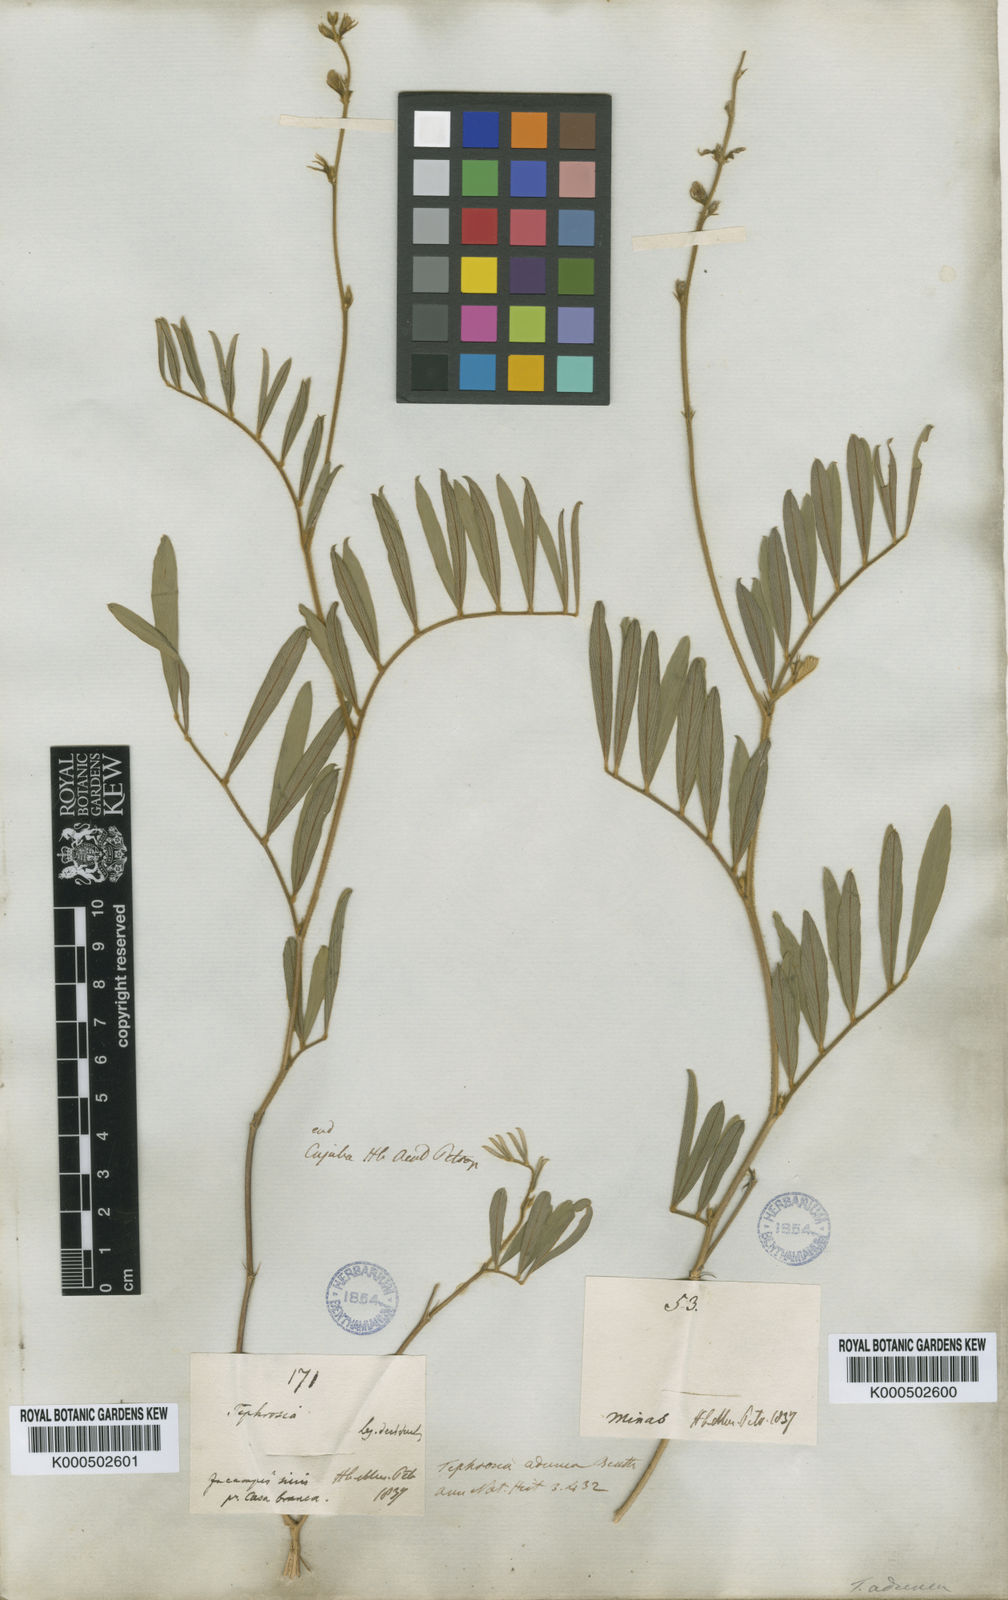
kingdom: Plantae
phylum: Tracheophyta
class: Magnoliopsida
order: Fabales
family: Fabaceae
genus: Tephrosia
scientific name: Tephrosia adunca
